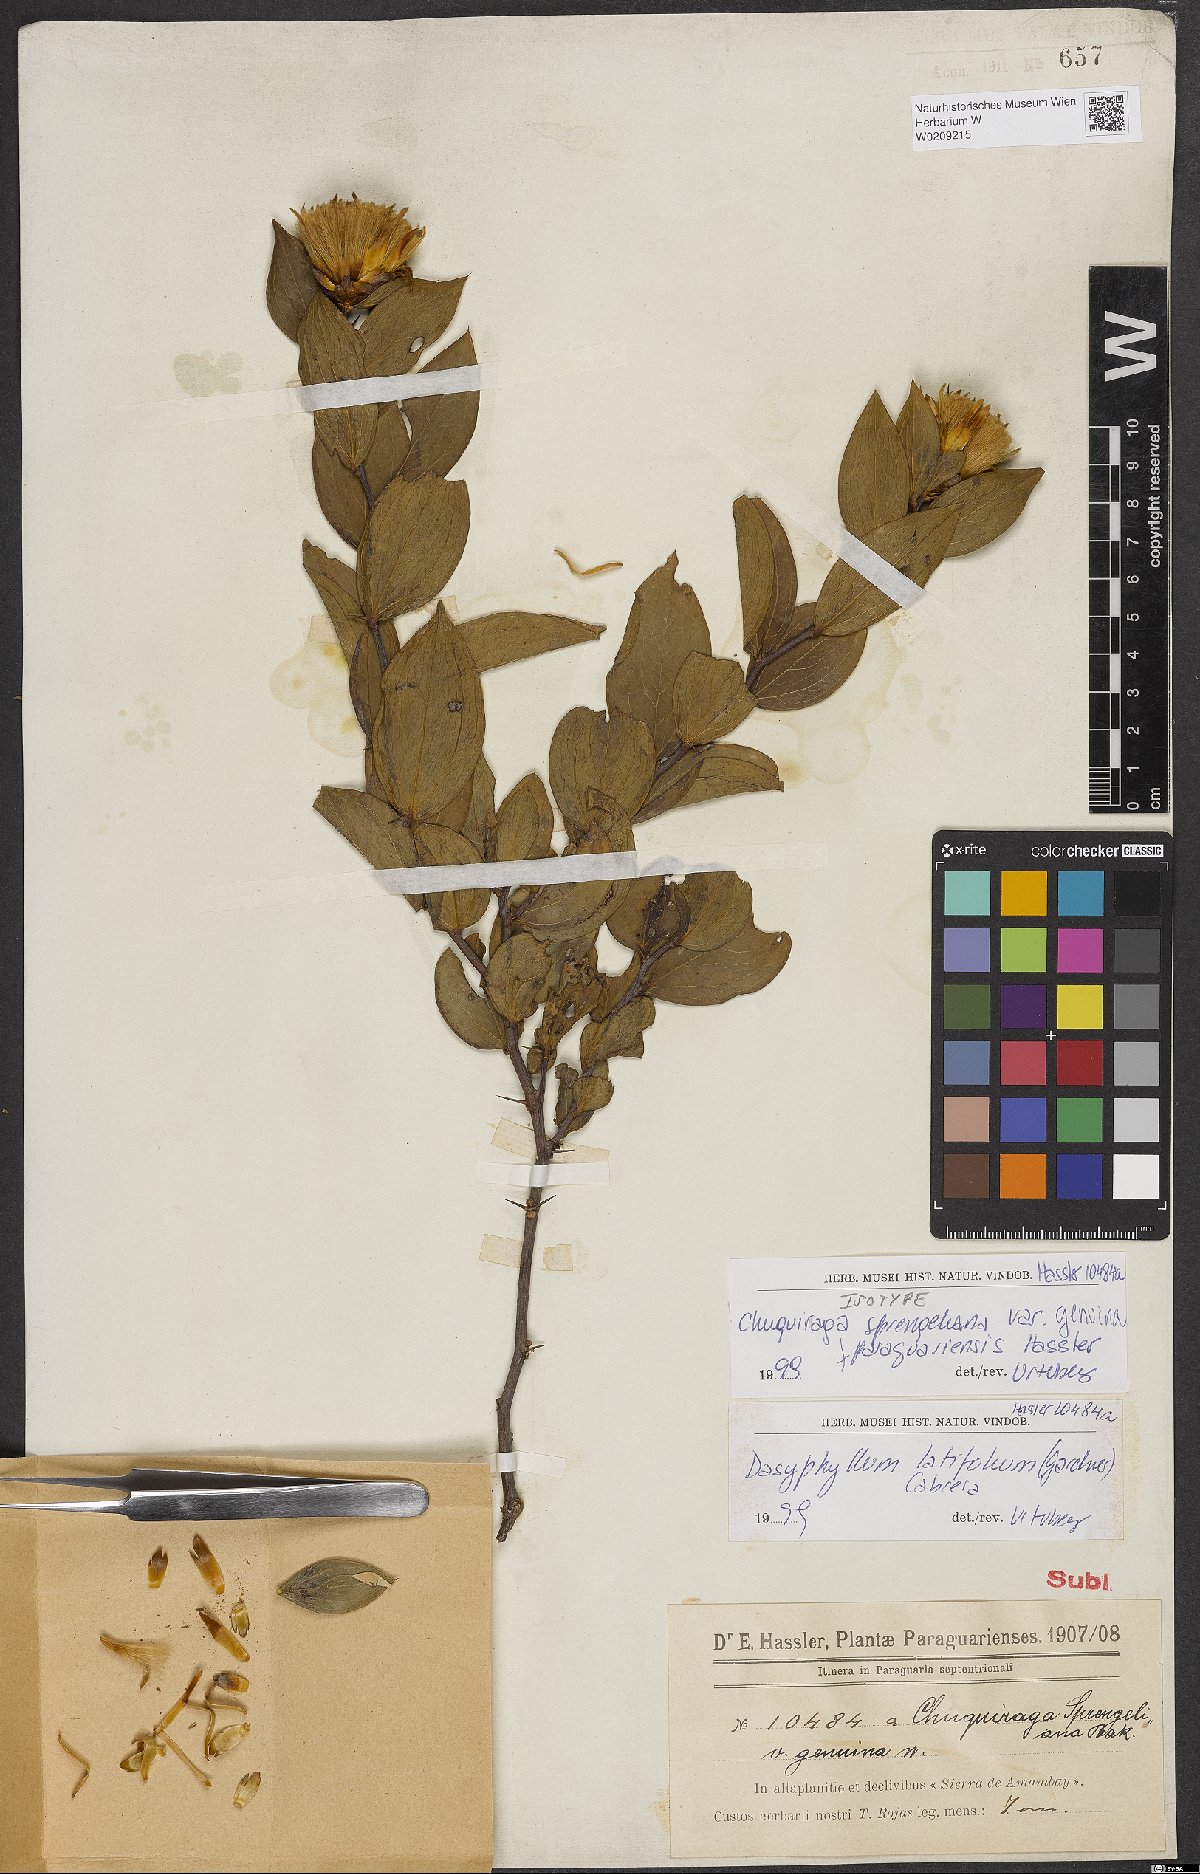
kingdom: Plantae
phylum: Tracheophyta
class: Magnoliopsida
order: Asterales
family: Asteraceae
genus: Dasyphyllum
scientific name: Dasyphyllum latifolium
